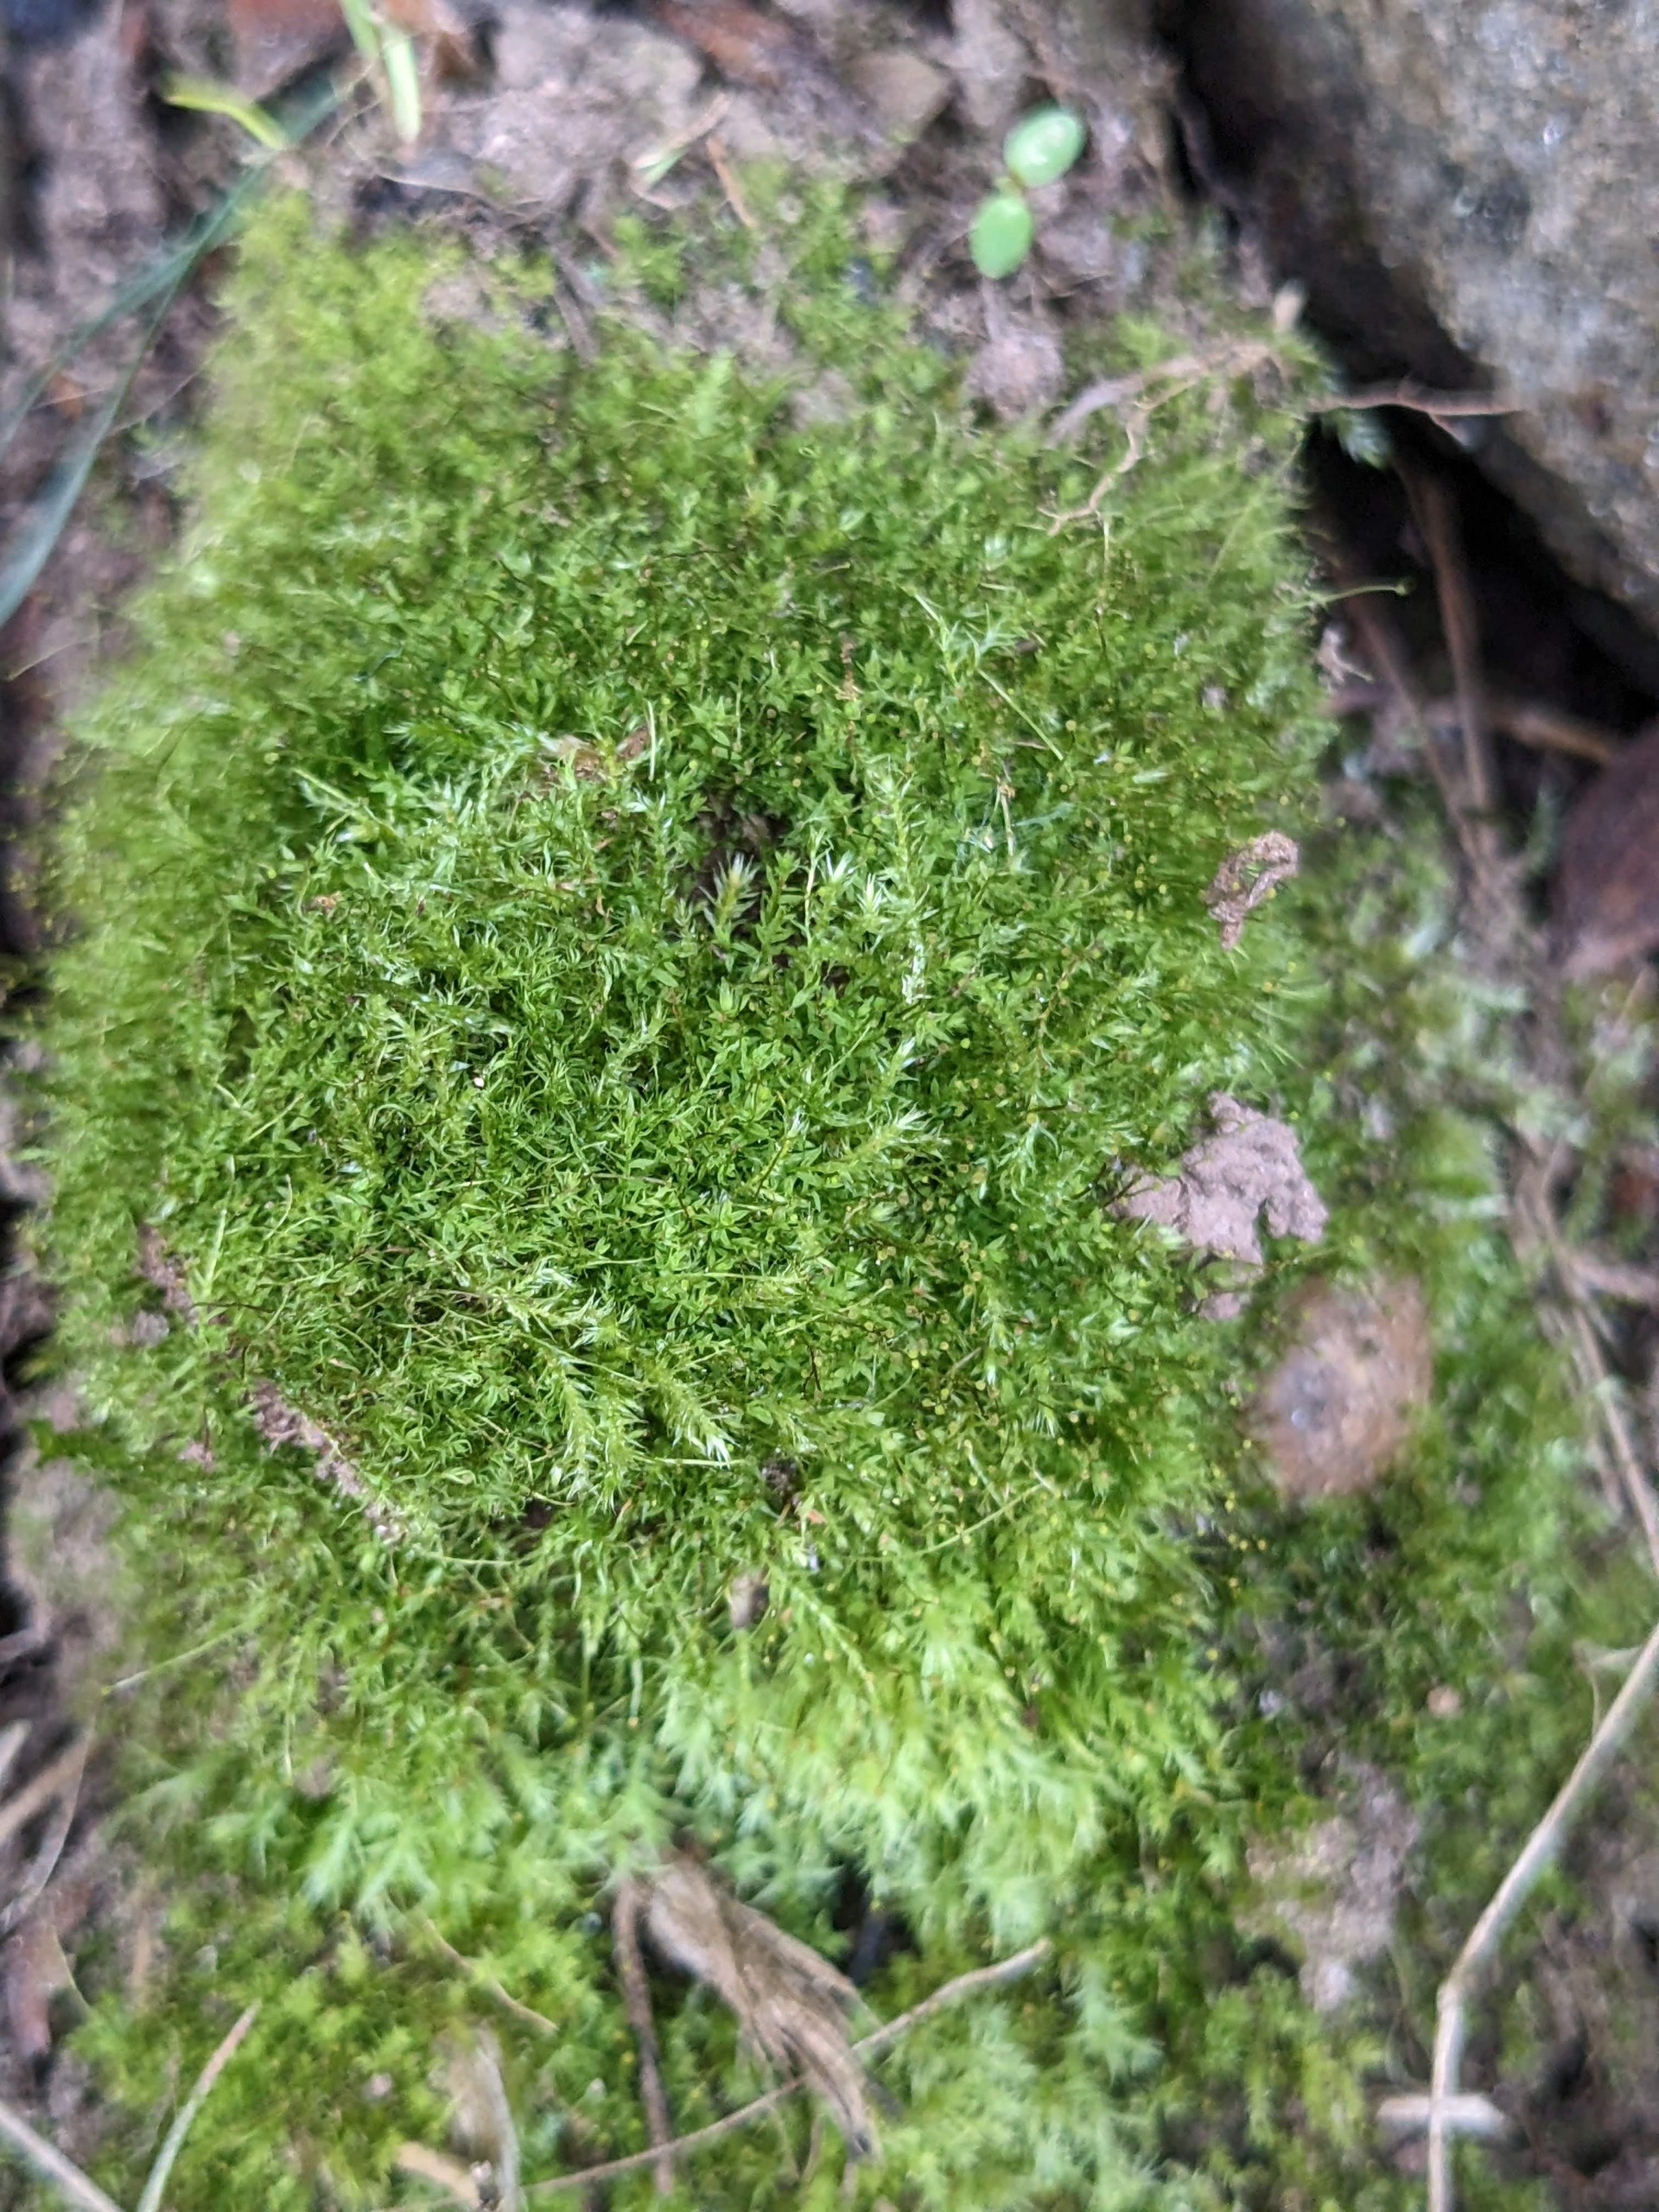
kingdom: Plantae
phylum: Bryophyta
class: Bryopsida
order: Aulacomniales
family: Aulacomniaceae
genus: Aulacomnium
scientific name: Aulacomnium androgynum
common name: Kugle-filtmos
